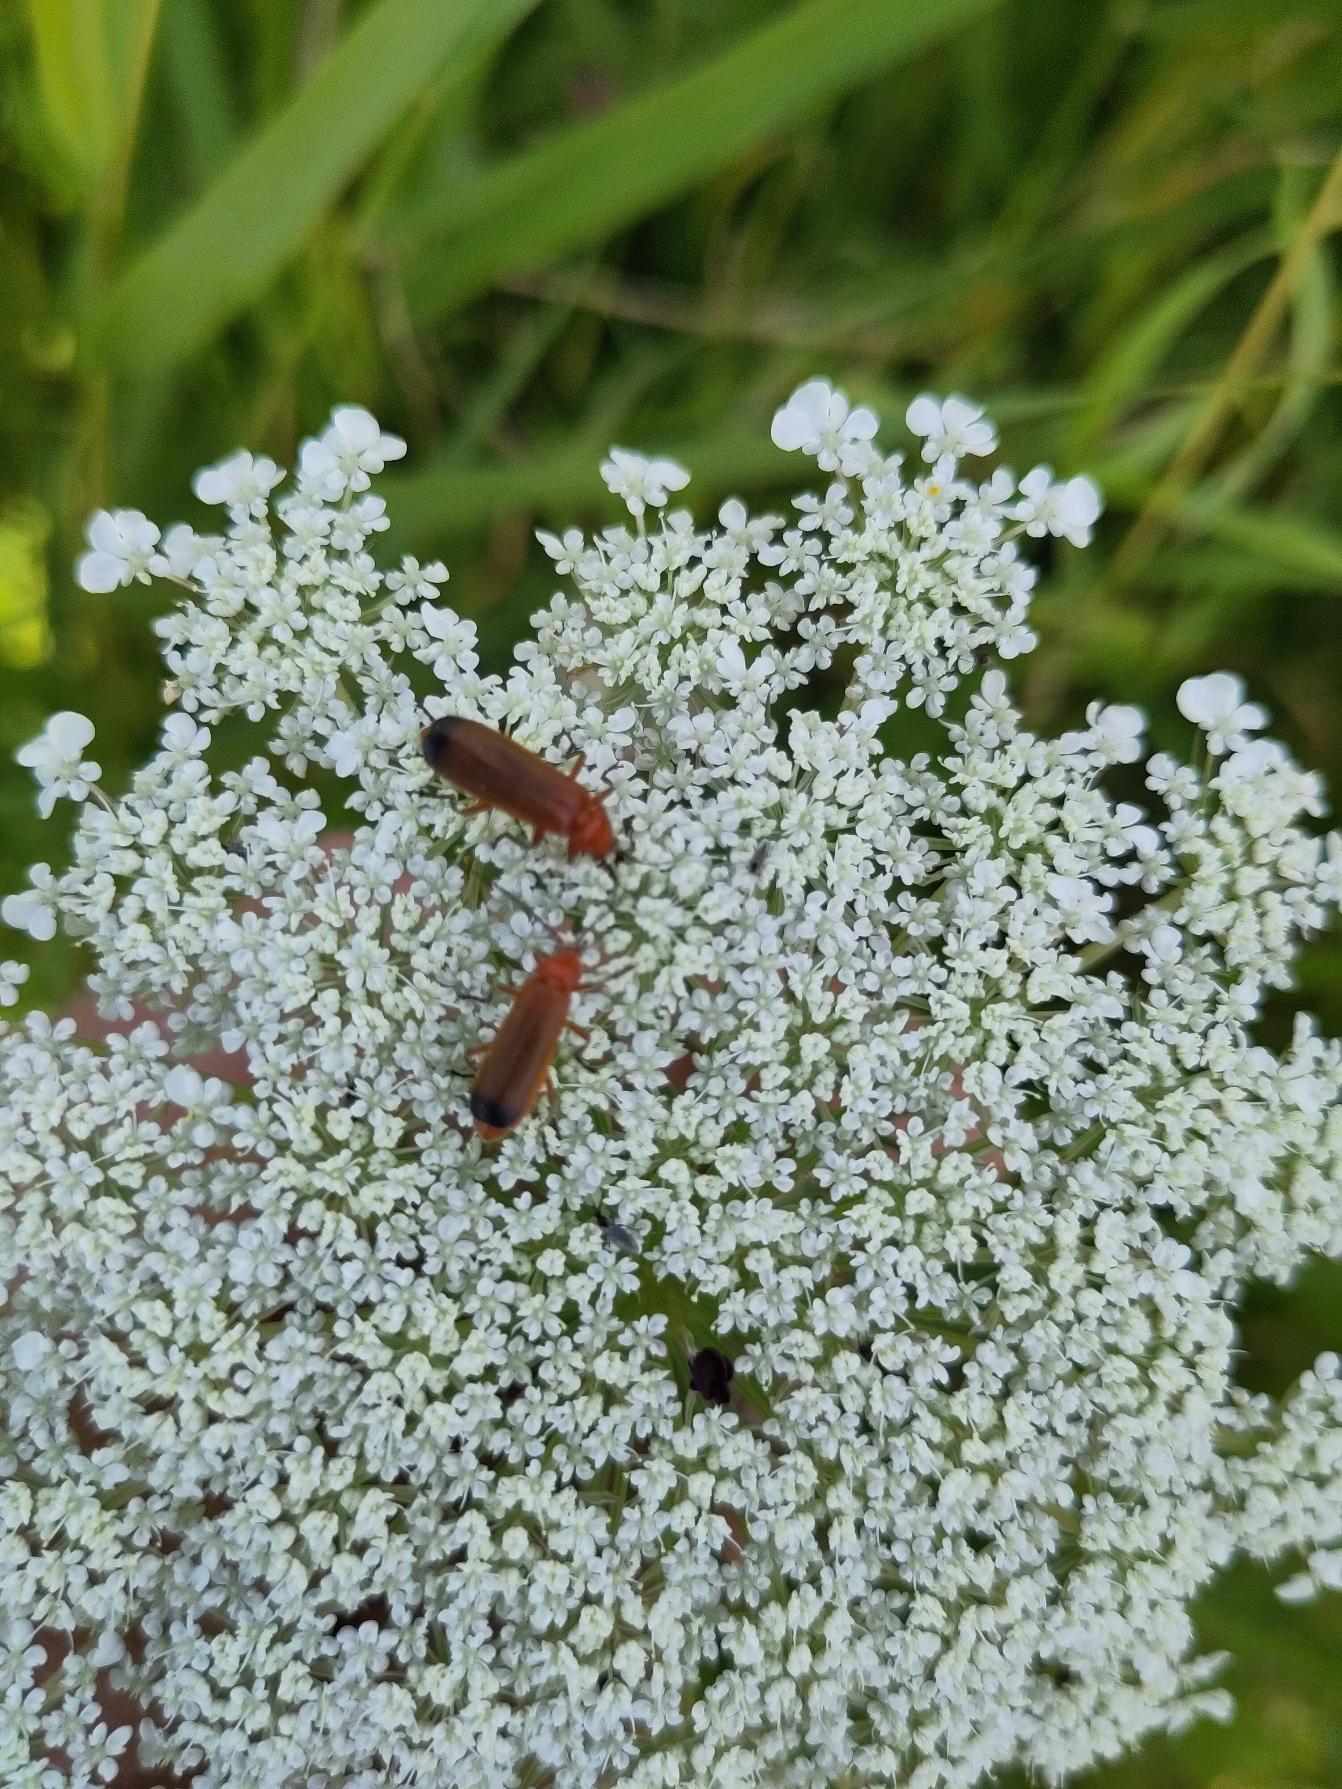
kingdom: Animalia
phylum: Arthropoda
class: Insecta
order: Coleoptera
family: Cantharidae
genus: Rhagonycha
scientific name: Rhagonycha fulva
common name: Præstebille
